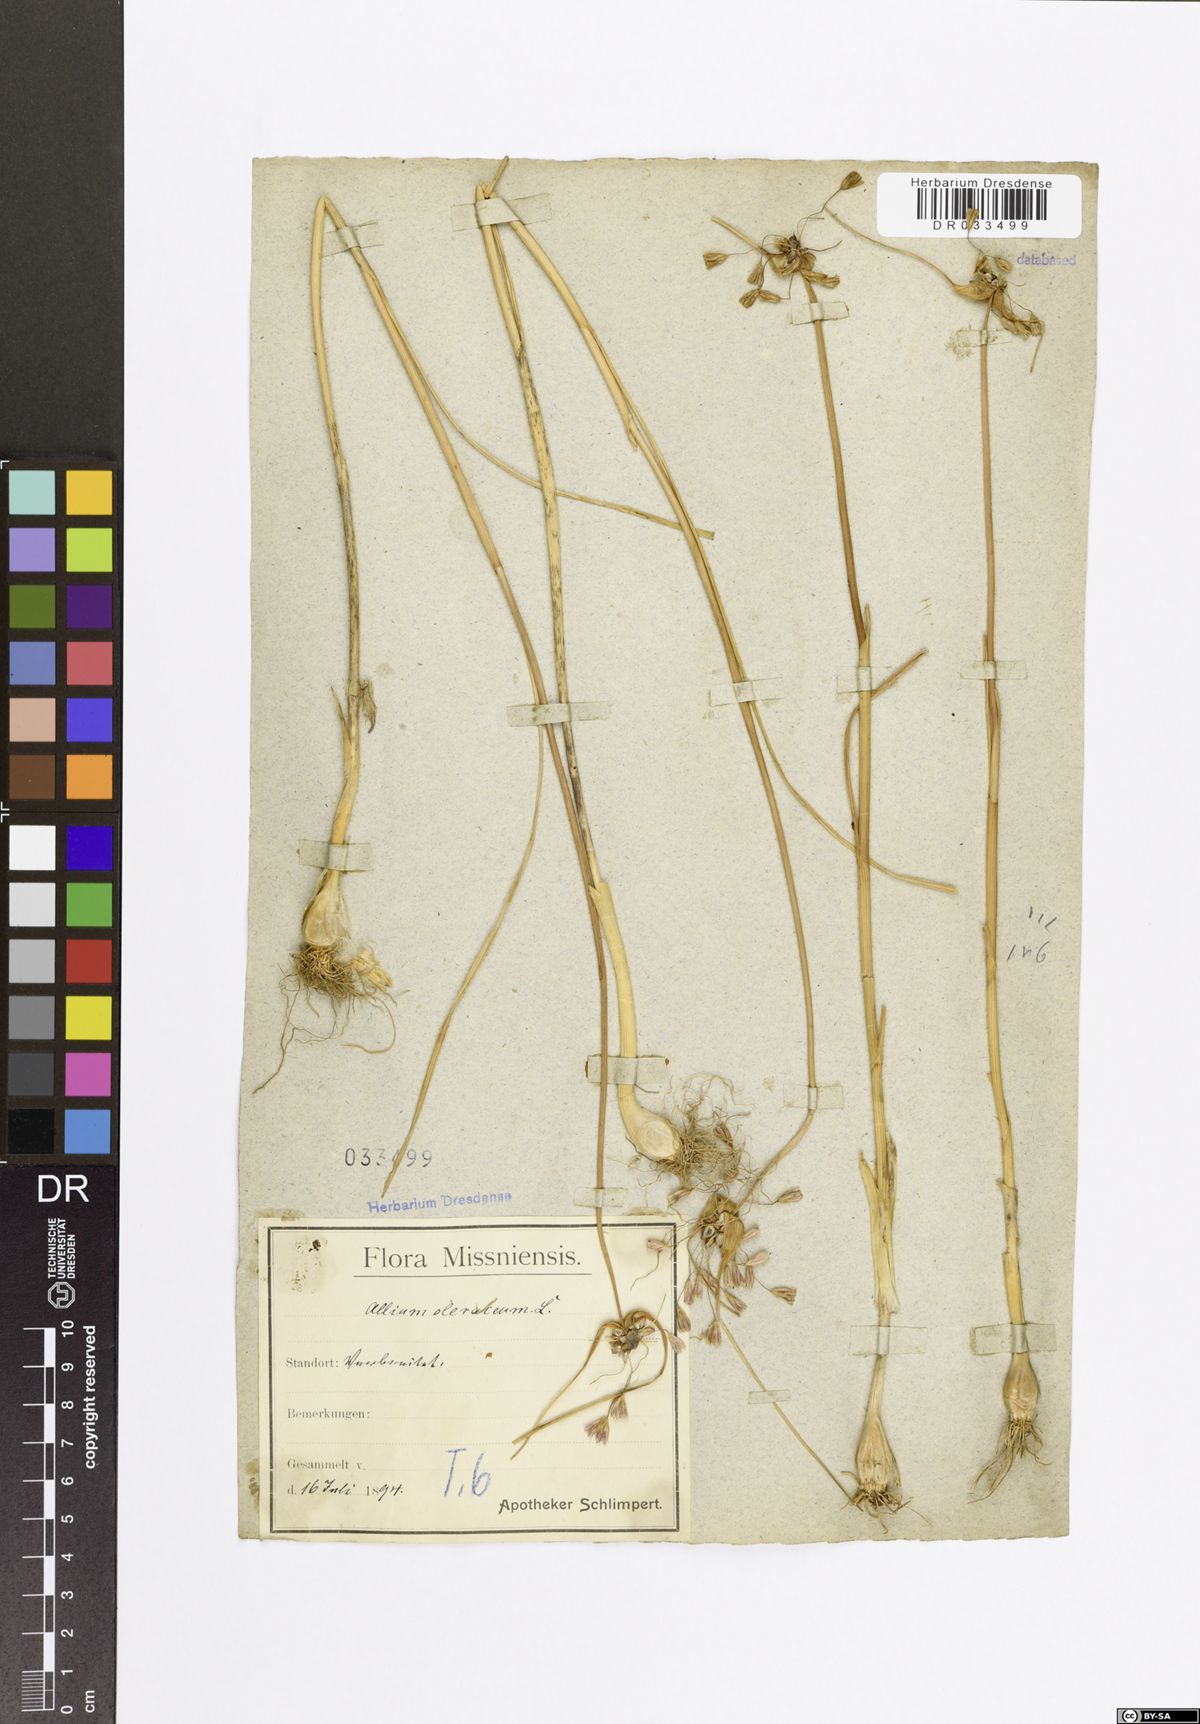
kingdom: Plantae
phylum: Tracheophyta
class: Liliopsida
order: Asparagales
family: Amaryllidaceae
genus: Allium
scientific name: Allium oleraceum
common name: Field garlic
